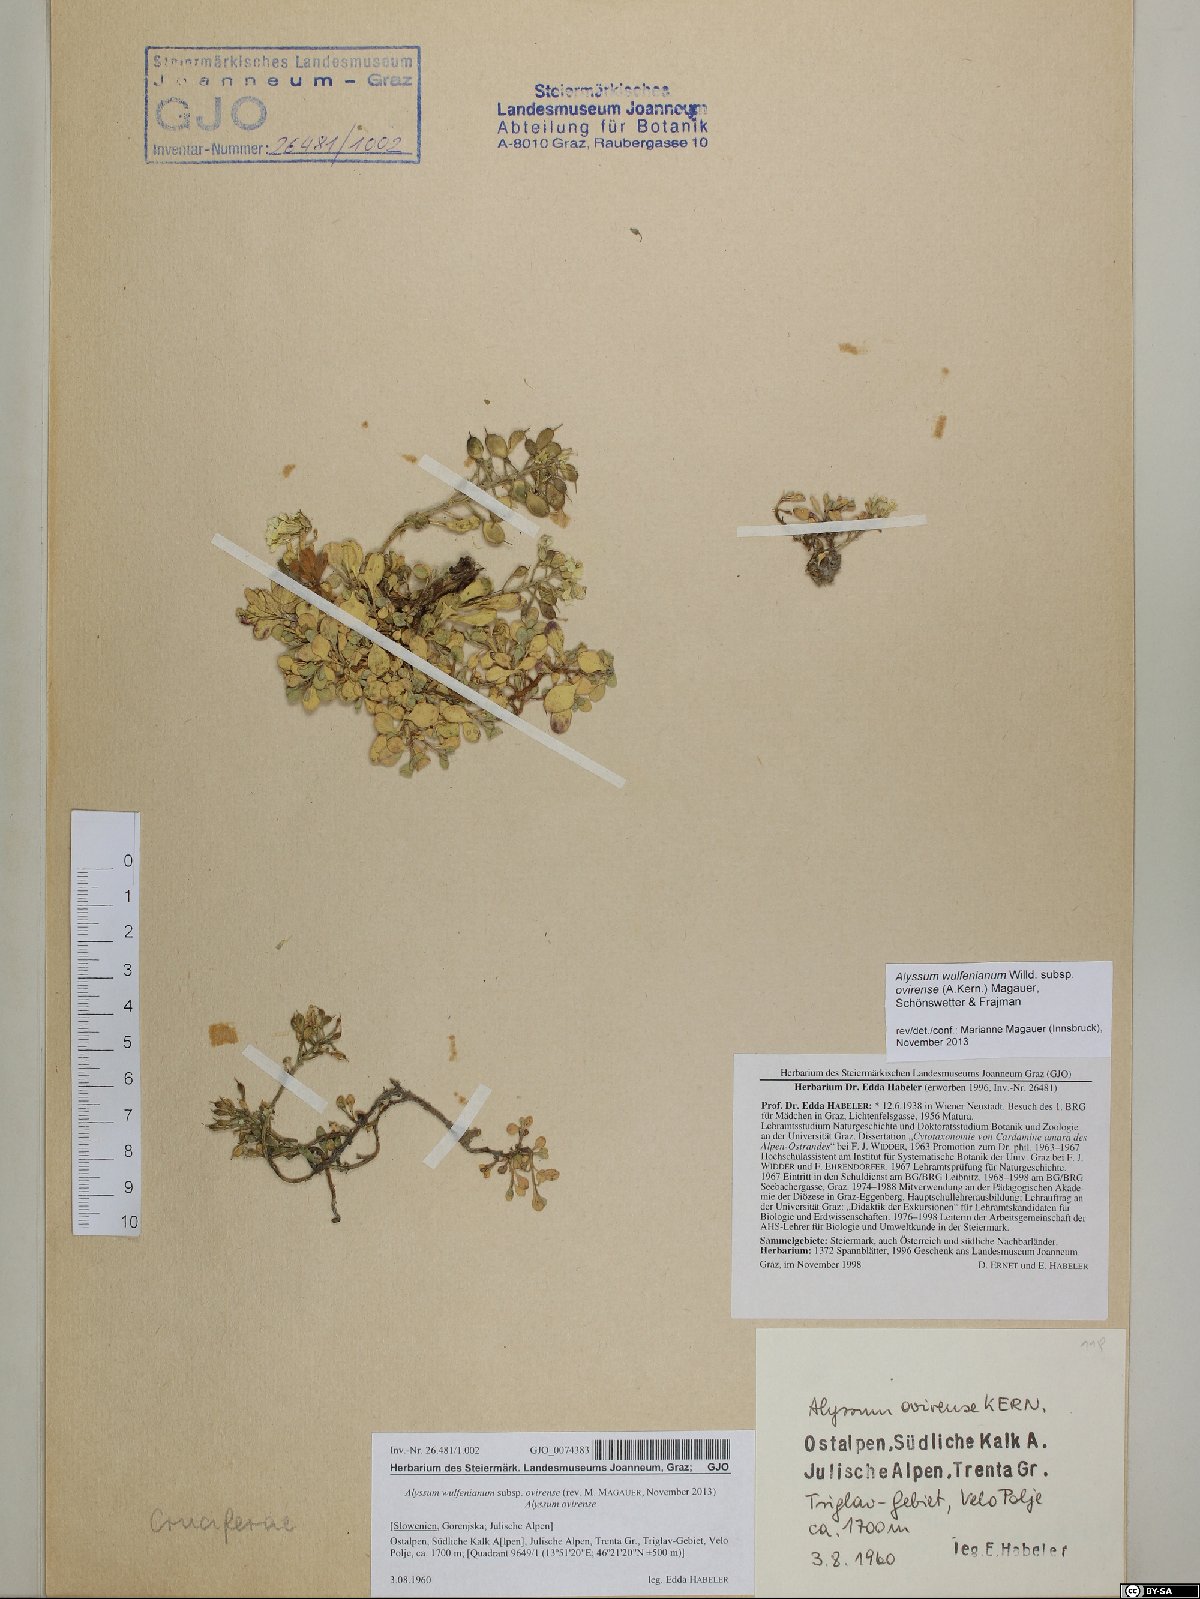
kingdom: Plantae
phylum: Tracheophyta
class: Magnoliopsida
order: Brassicales
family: Brassicaceae
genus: Alyssum
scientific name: Alyssum wulfenianum
